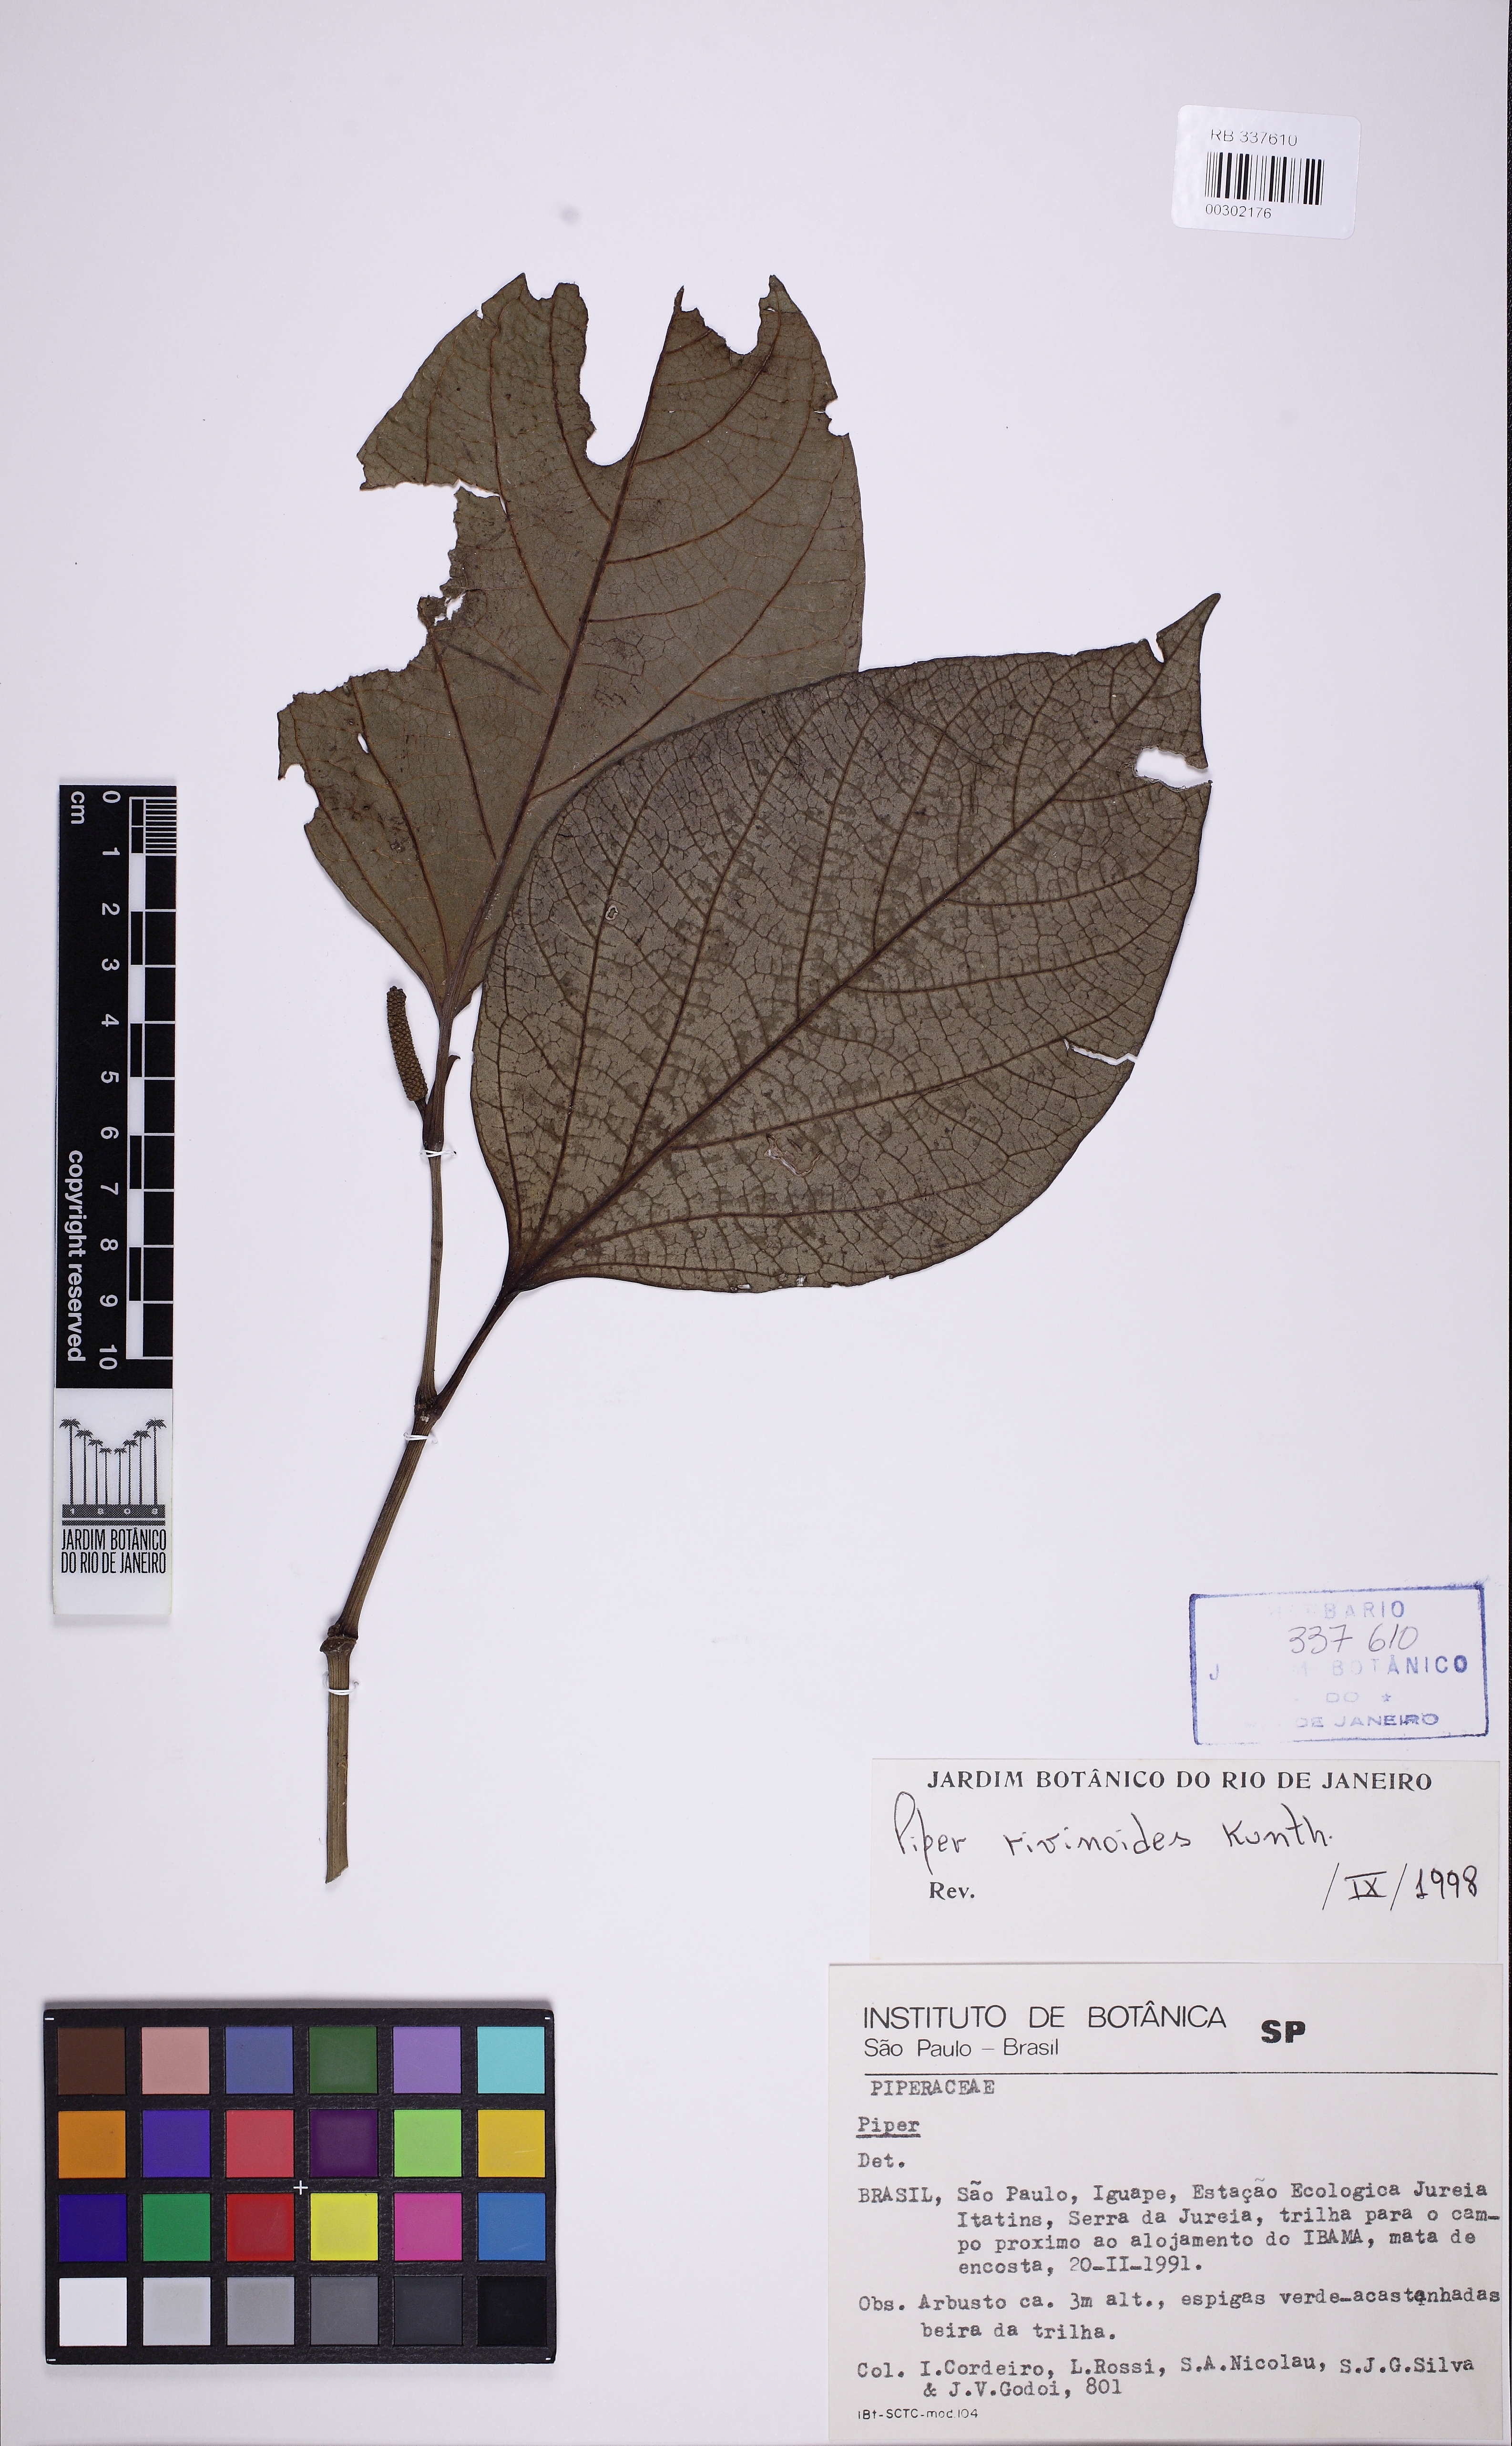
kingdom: Plantae
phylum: Tracheophyta
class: Magnoliopsida
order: Piperales
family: Piperaceae
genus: Piper
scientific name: Piper rivinoides
